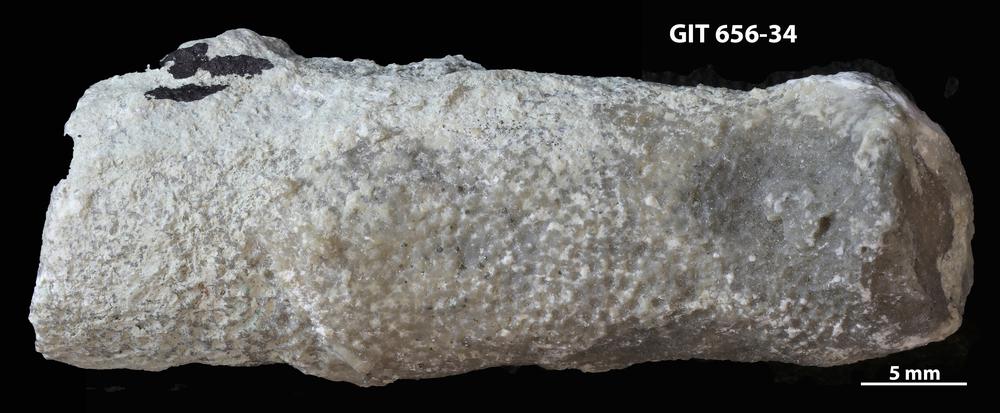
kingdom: Animalia
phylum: Cnidaria
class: Anthozoa
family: Theciidae
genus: Laceripora
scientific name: Laceripora
